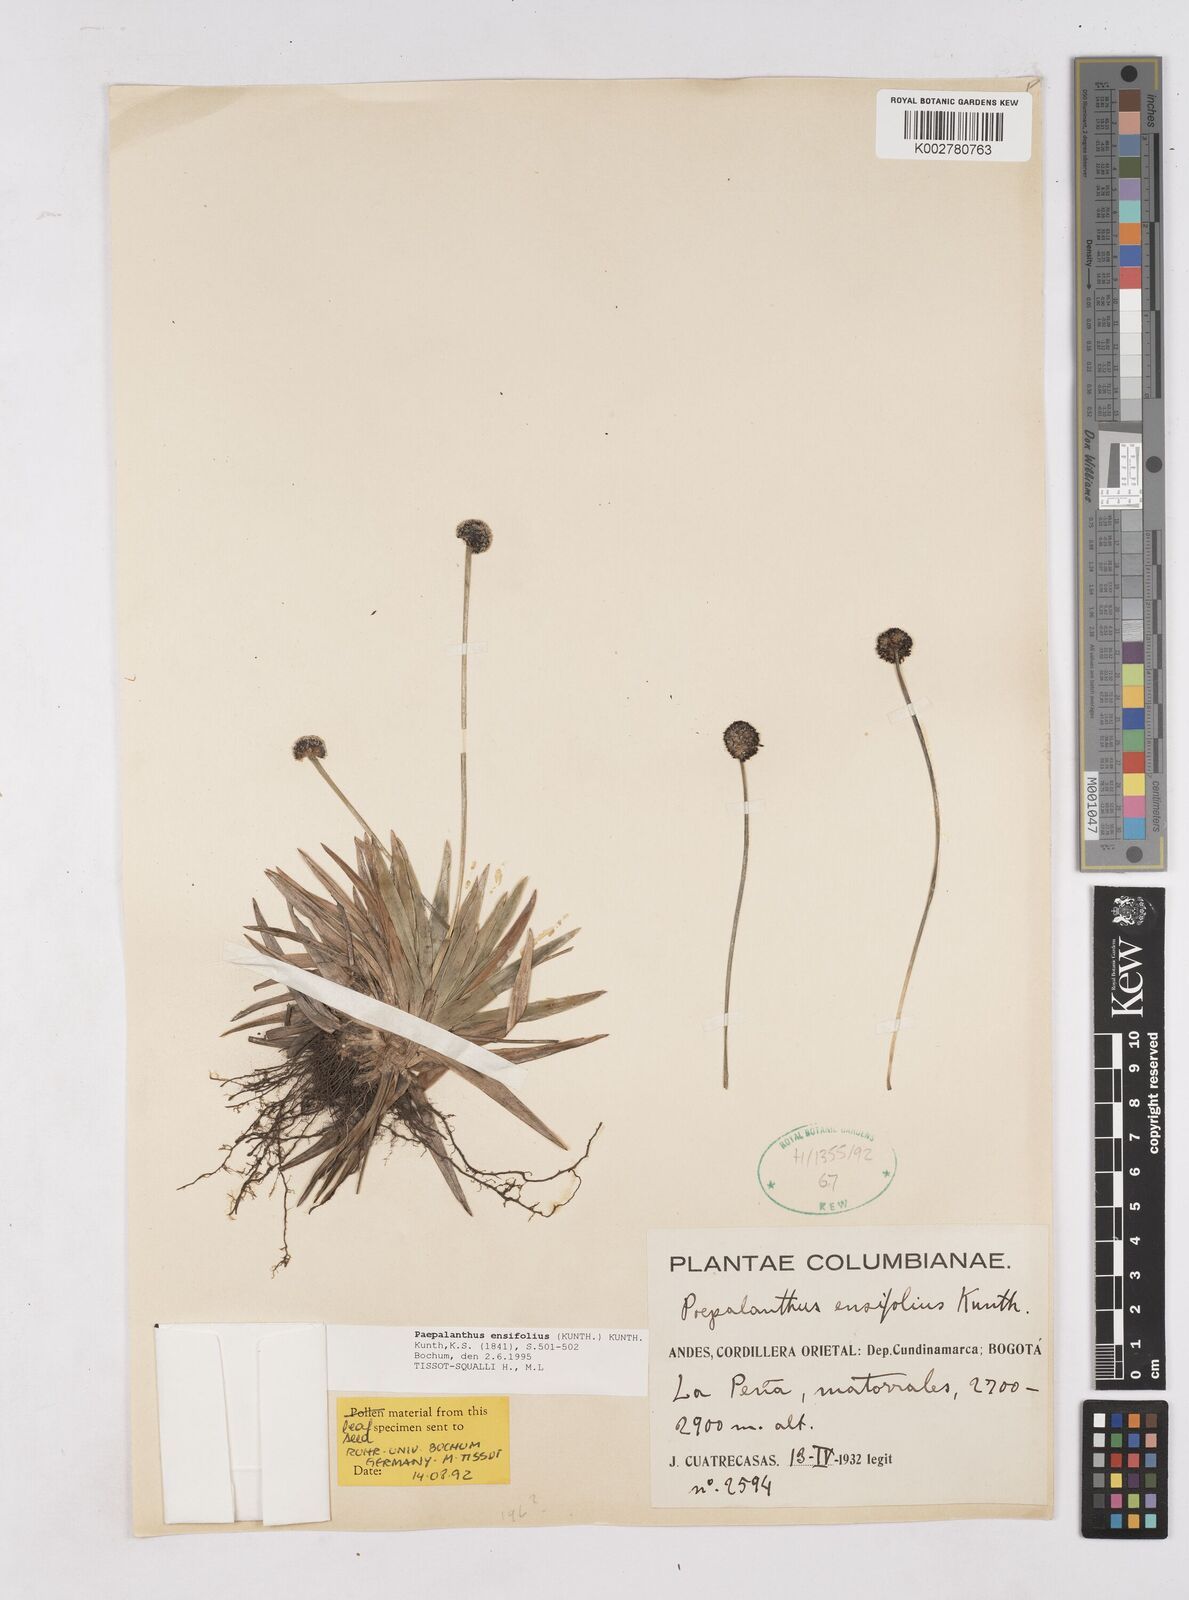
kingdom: Plantae
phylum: Tracheophyta
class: Liliopsida
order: Poales
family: Eriocaulaceae
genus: Paepalanthus
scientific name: Paepalanthus ensifolius
